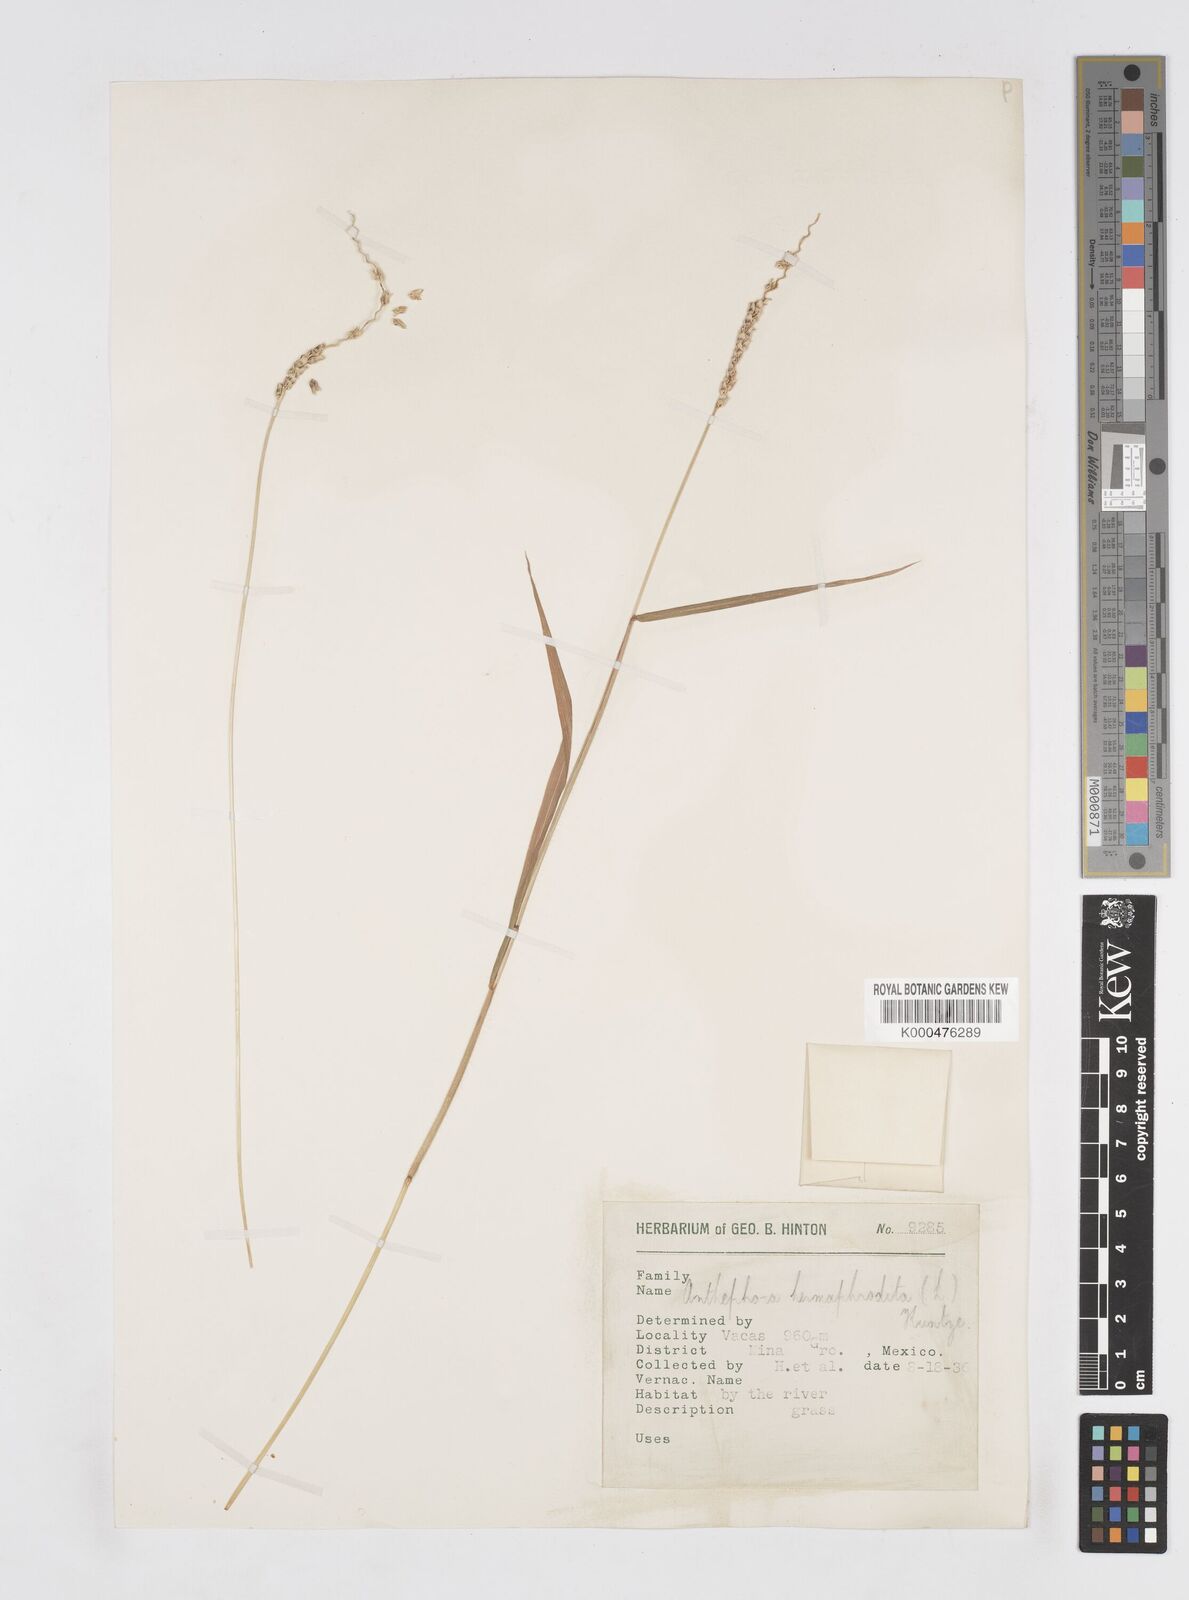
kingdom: Plantae
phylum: Tracheophyta
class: Liliopsida
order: Poales
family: Poaceae
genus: Anthephora
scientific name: Anthephora hermaphrodita
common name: Oldfield grass
